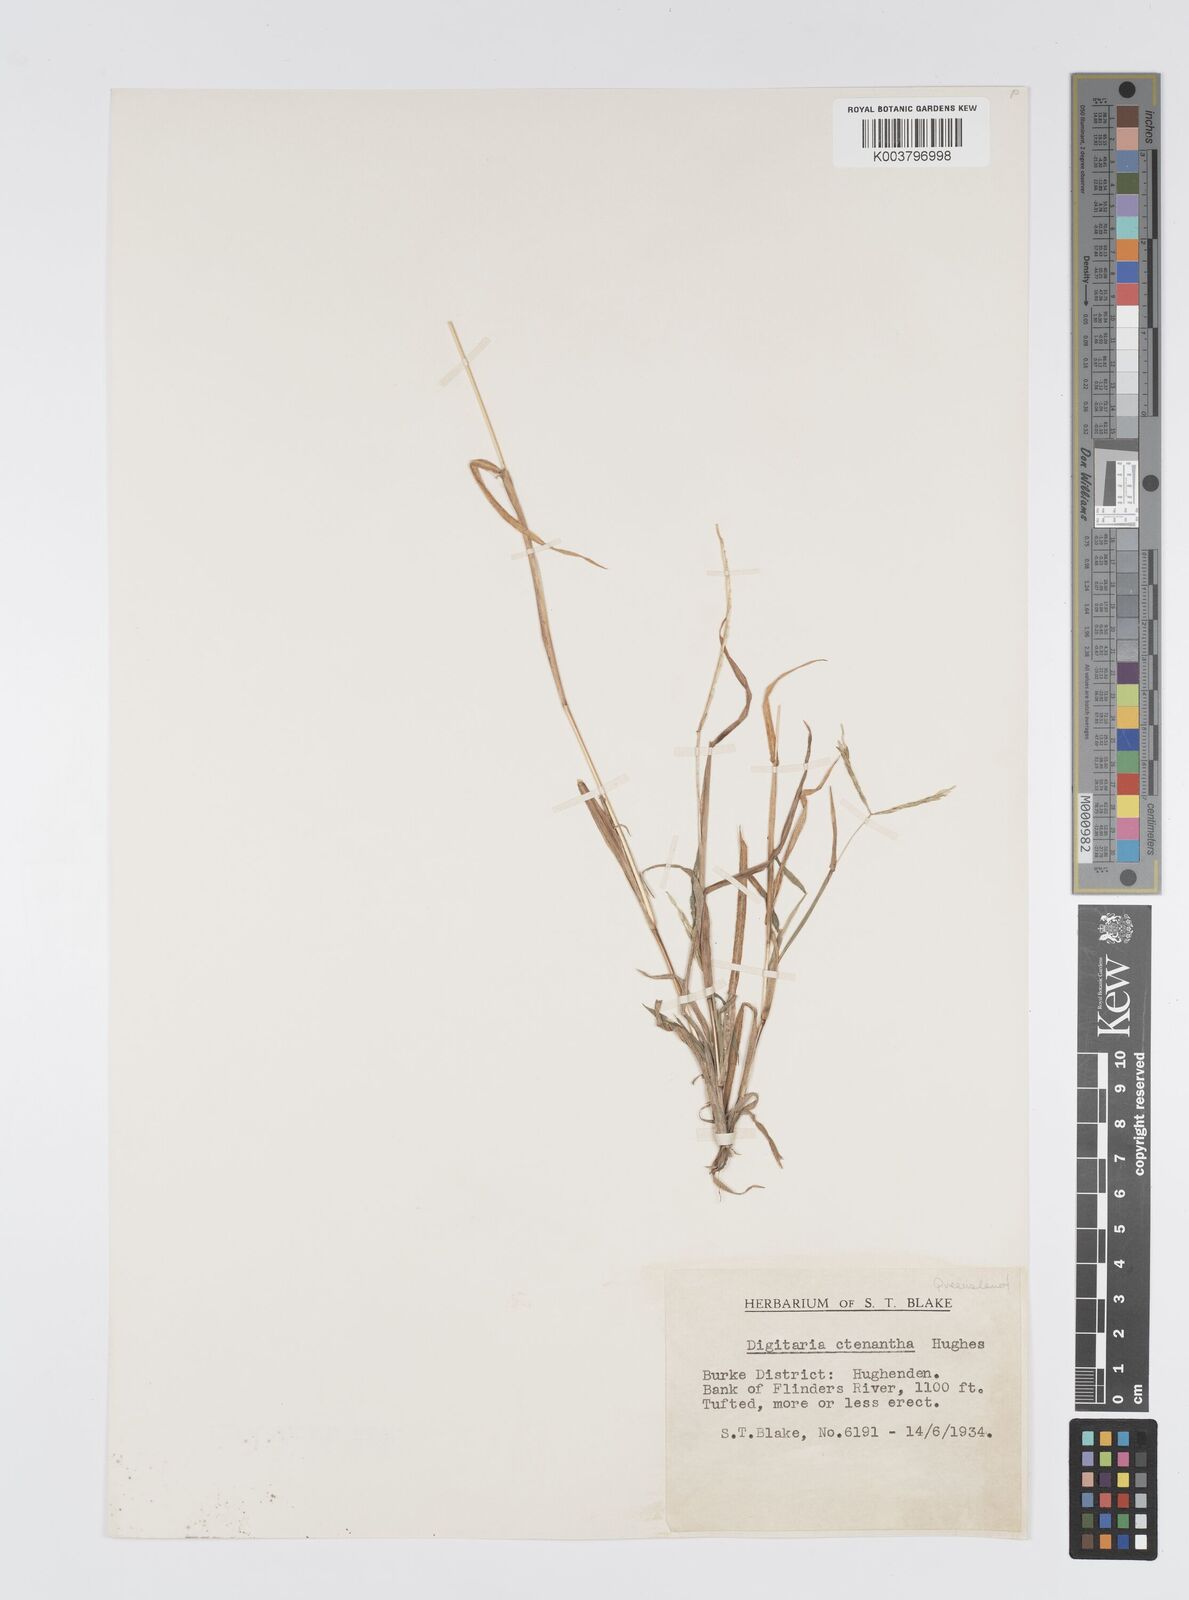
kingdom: Plantae
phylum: Tracheophyta
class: Liliopsida
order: Poales
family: Poaceae
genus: Digitaria
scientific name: Digitaria ctenantha
